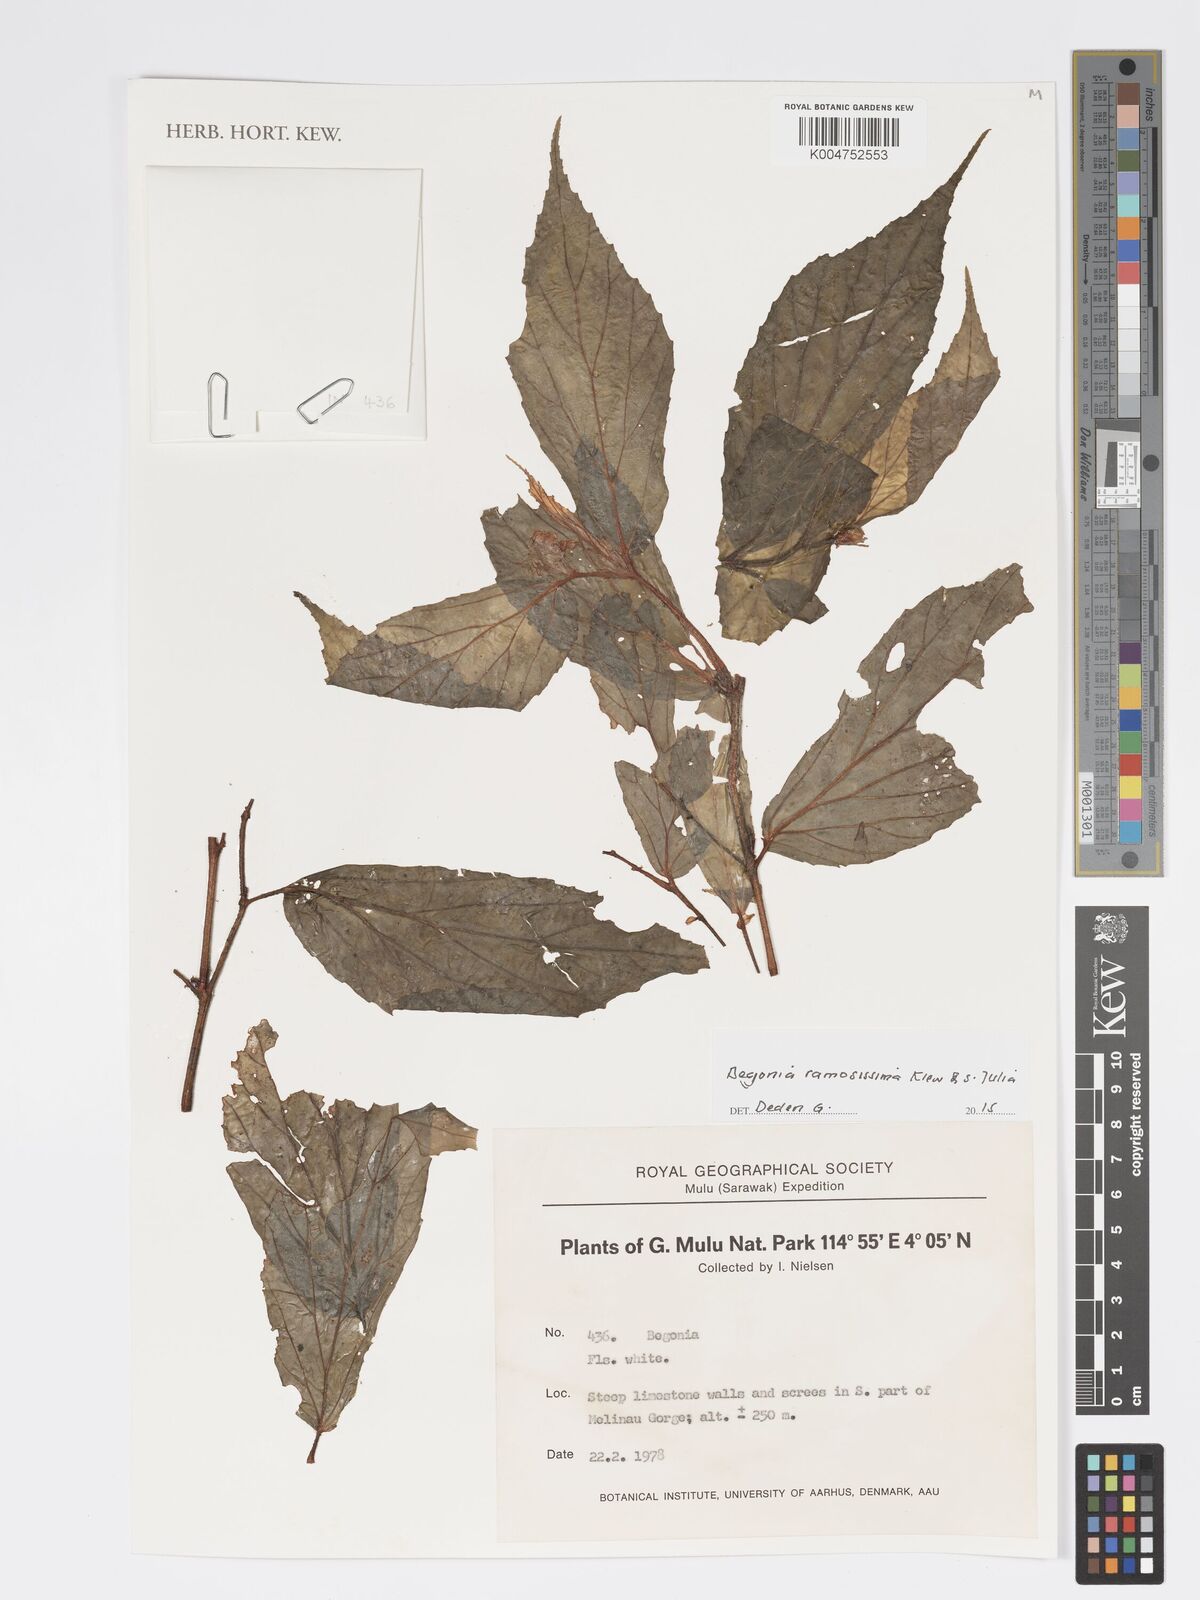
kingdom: Plantae
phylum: Tracheophyta
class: Magnoliopsida
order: Cucurbitales
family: Begoniaceae
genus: Begonia
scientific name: Begonia ramosissima
